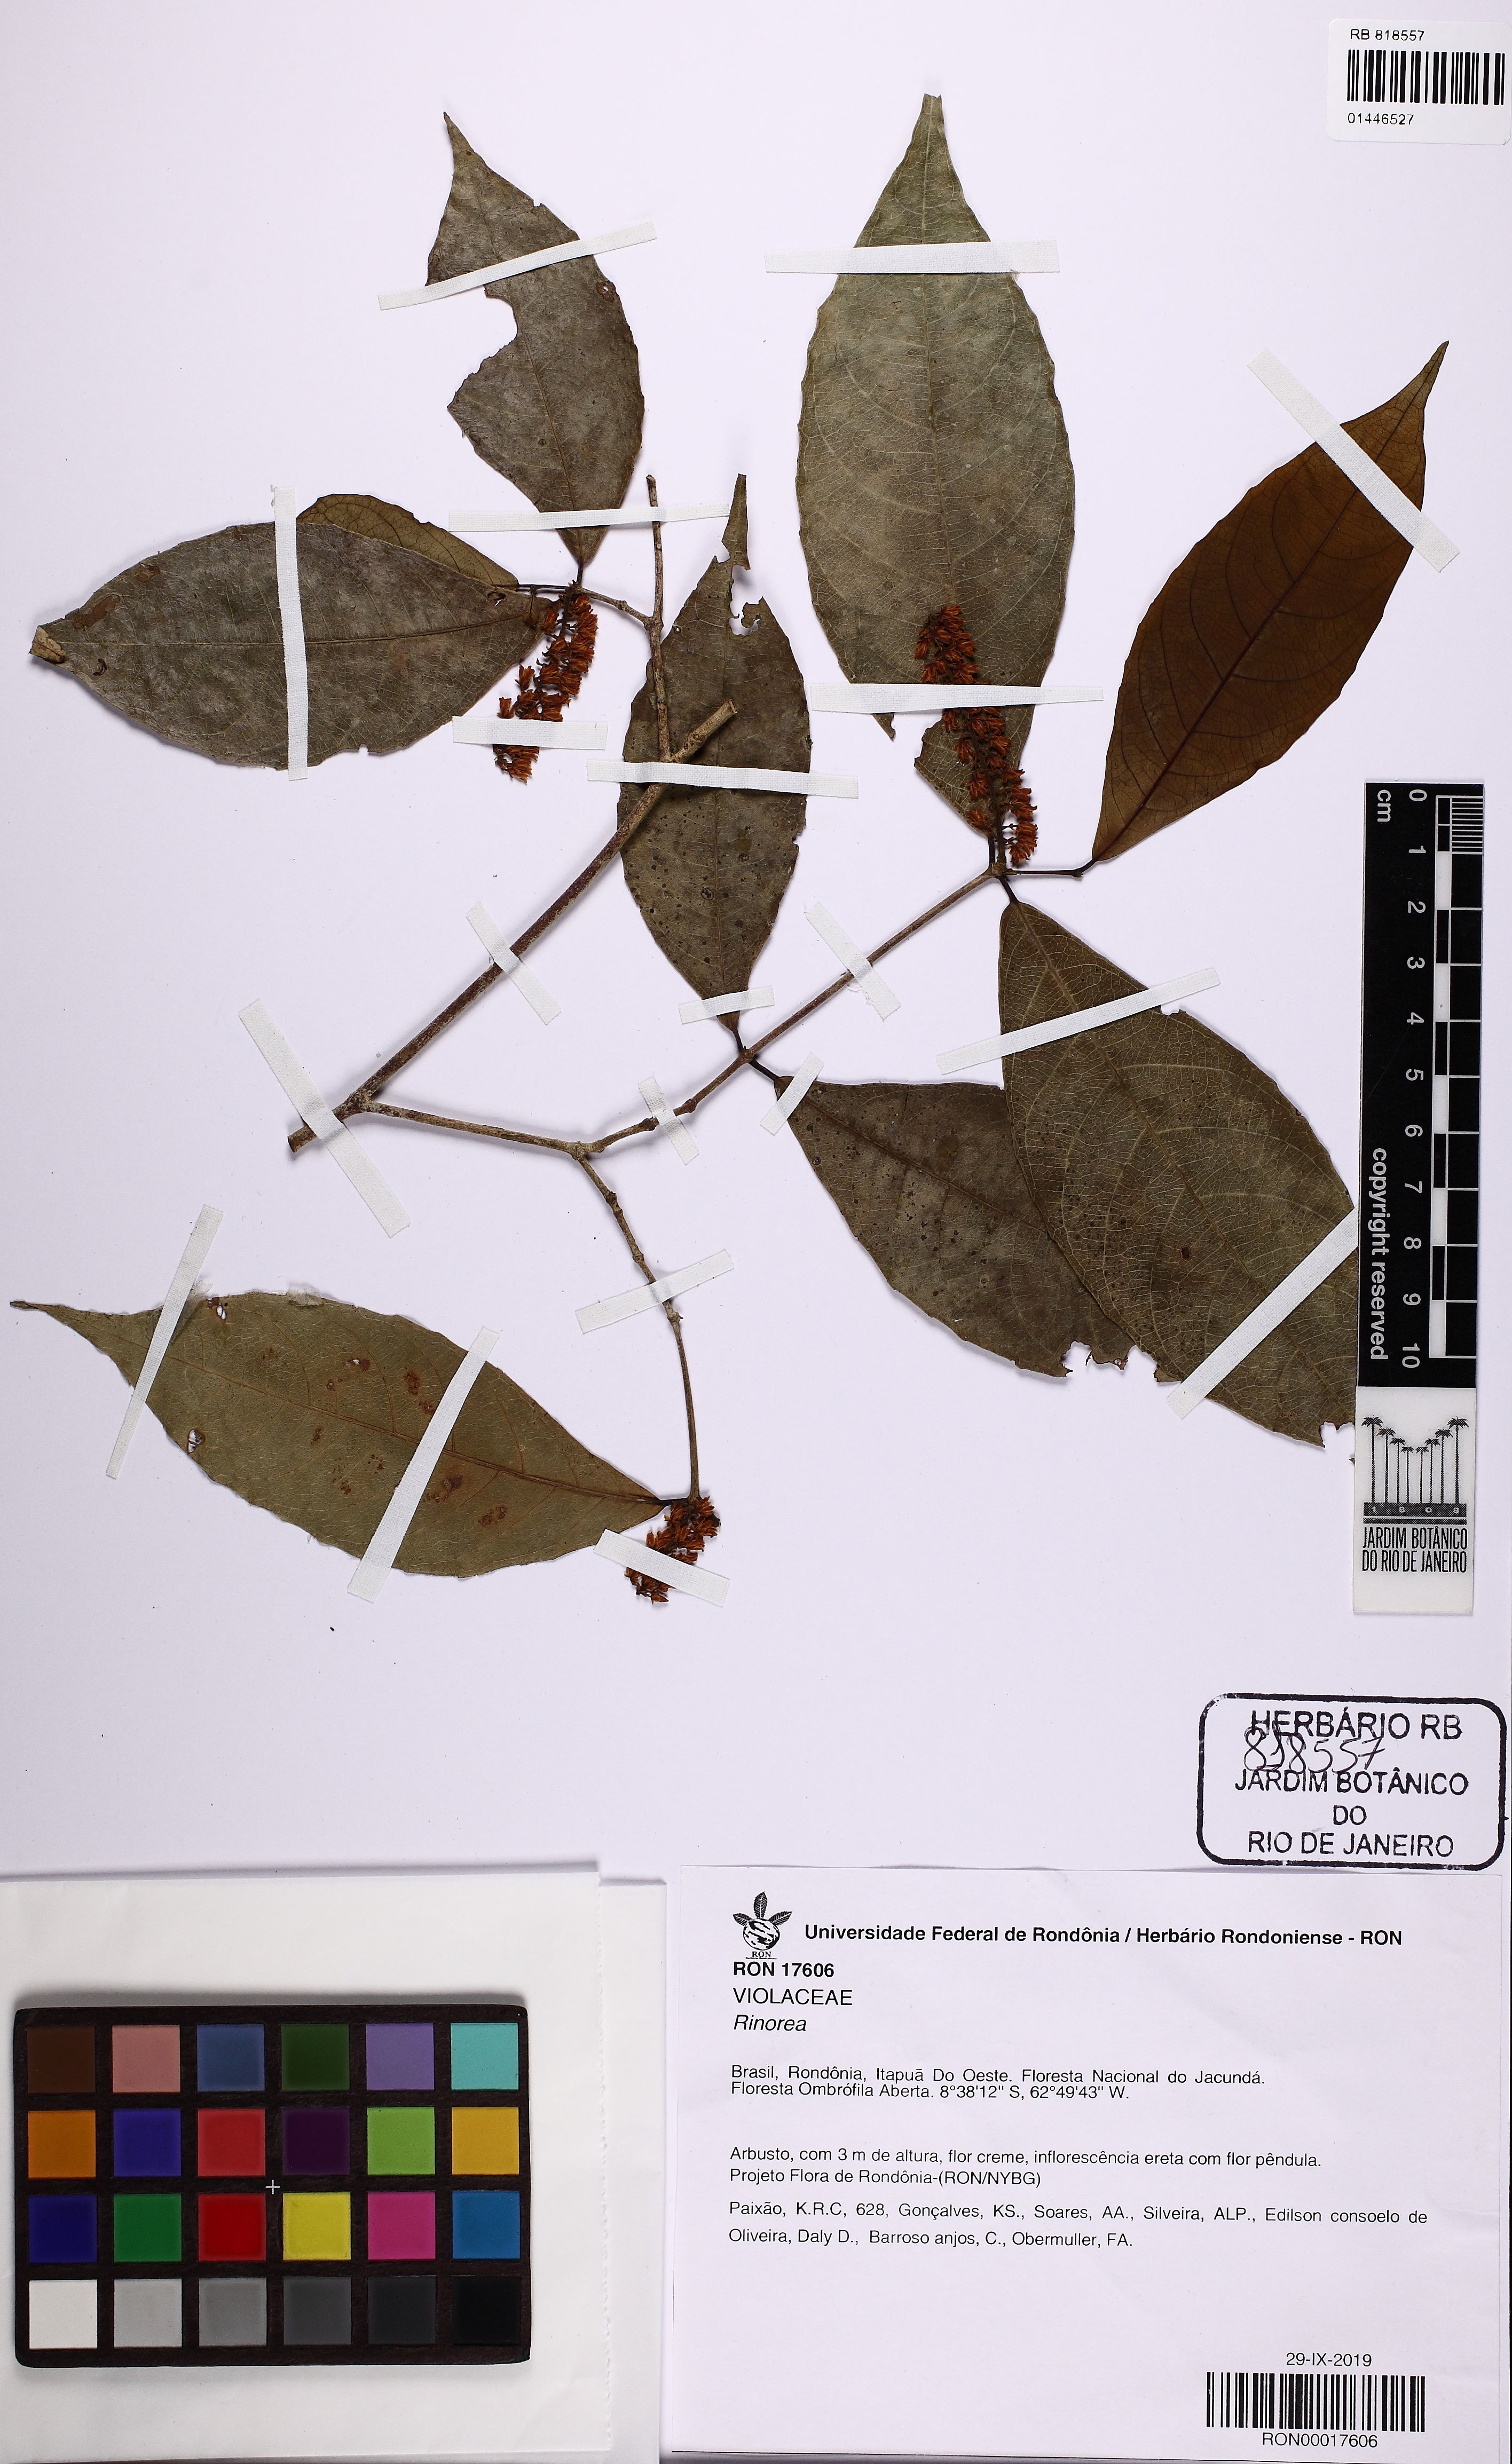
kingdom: Plantae
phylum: Tracheophyta
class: Magnoliopsida
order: Malpighiales
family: Violaceae
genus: Rinorea
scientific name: Rinorea
